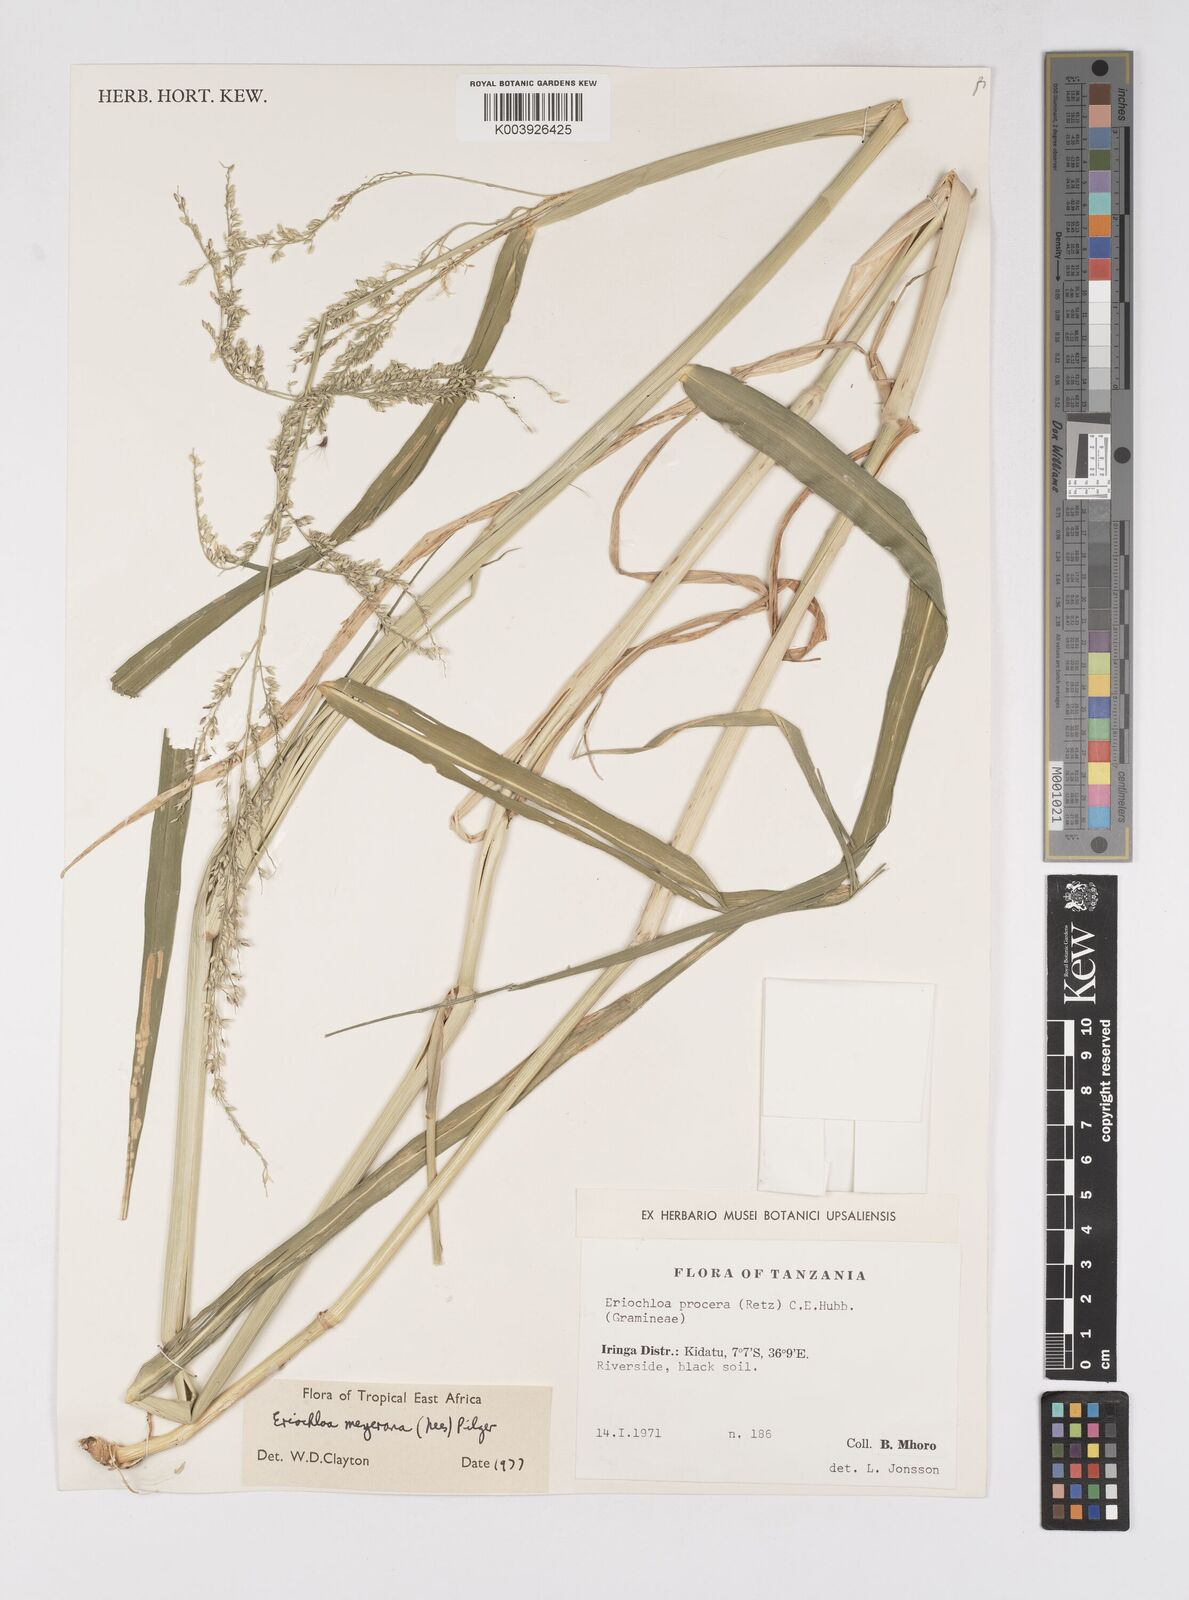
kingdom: Plantae
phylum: Tracheophyta
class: Liliopsida
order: Poales
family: Poaceae
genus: Eriochloa
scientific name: Eriochloa meyeriana
